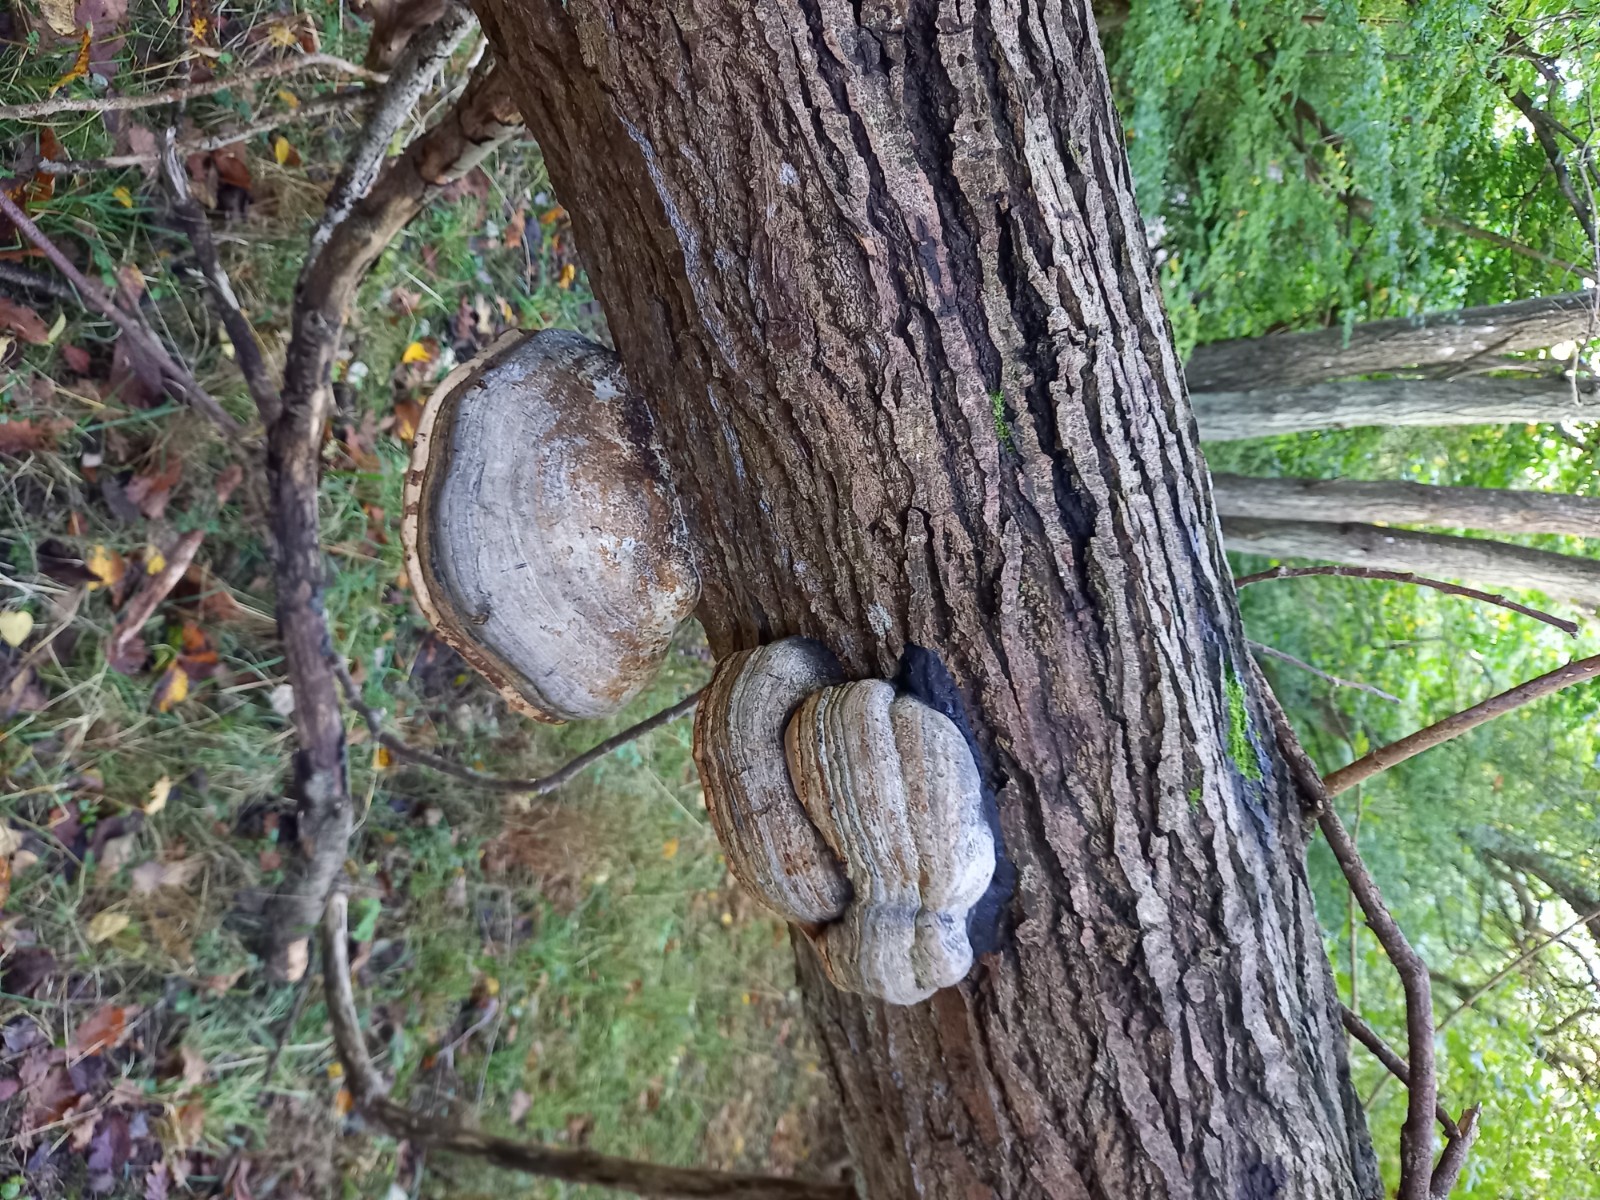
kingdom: Fungi
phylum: Basidiomycota
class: Agaricomycetes
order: Polyporales
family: Polyporaceae
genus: Fomes
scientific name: Fomes fomentarius
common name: tøndersvamp
